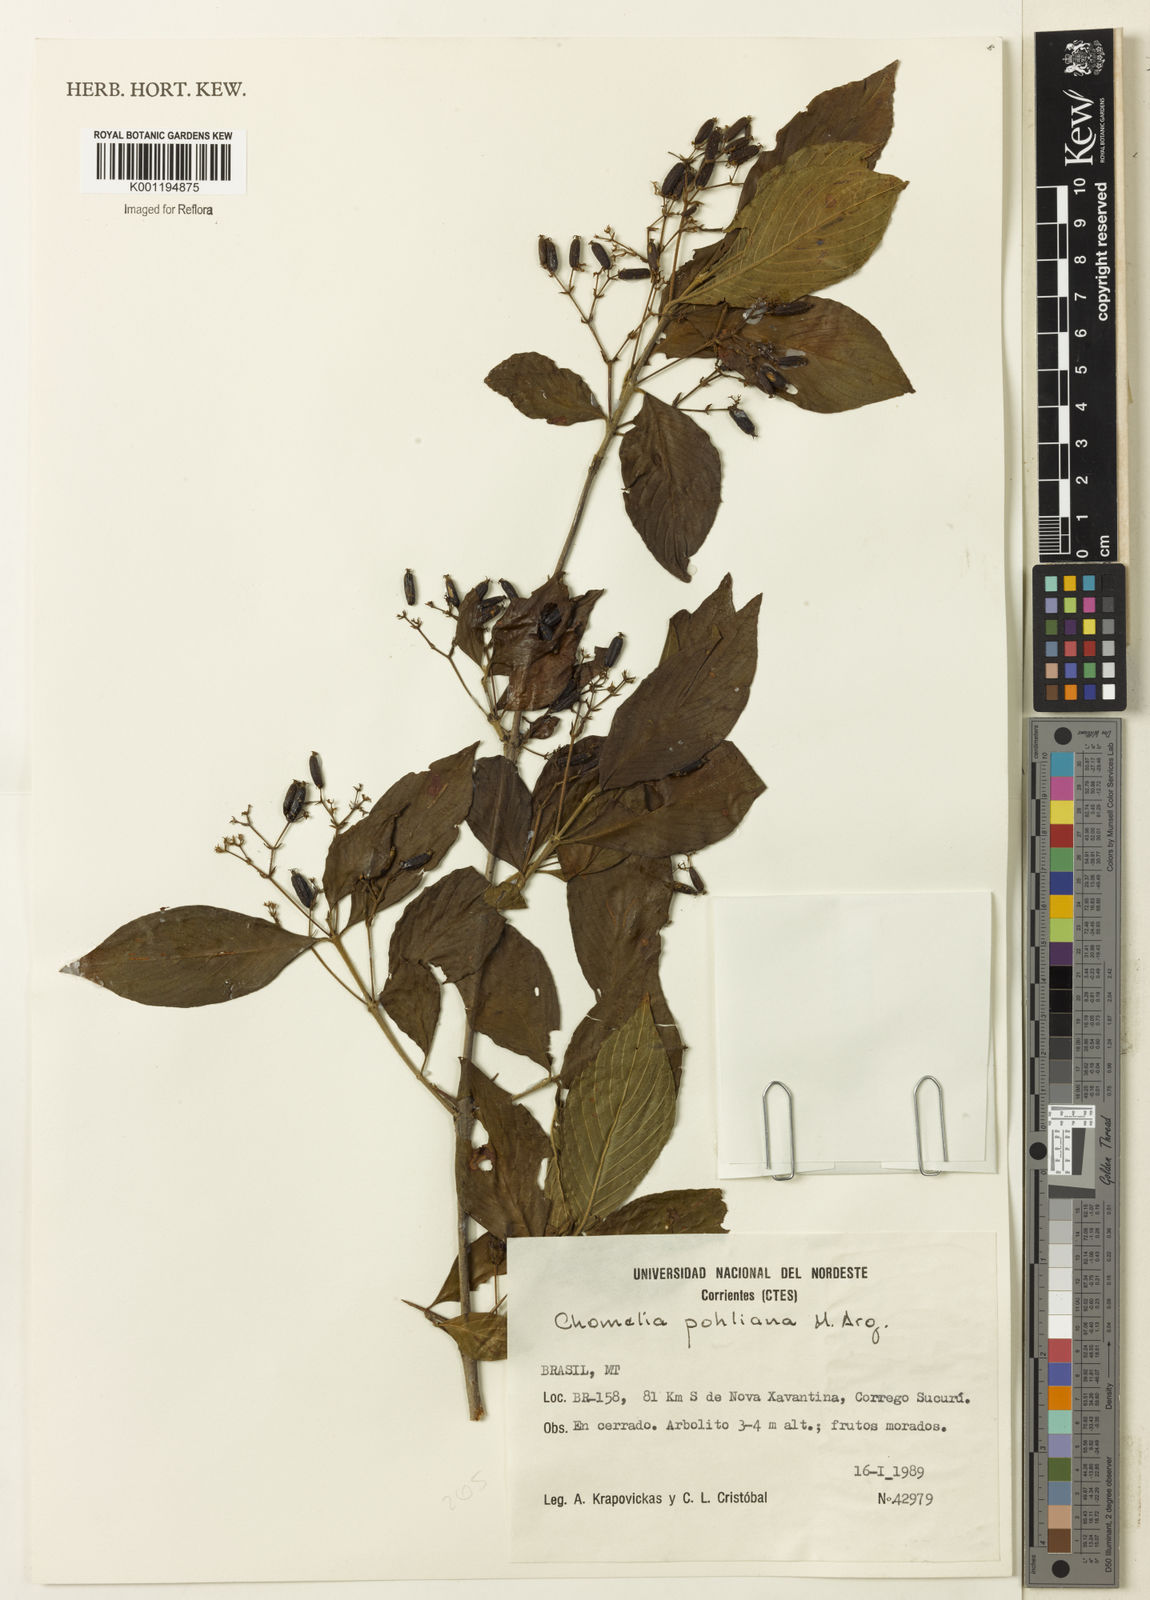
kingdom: Plantae
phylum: Tracheophyta
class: Magnoliopsida
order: Gentianales
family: Rubiaceae
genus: Chomelia
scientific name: Chomelia
